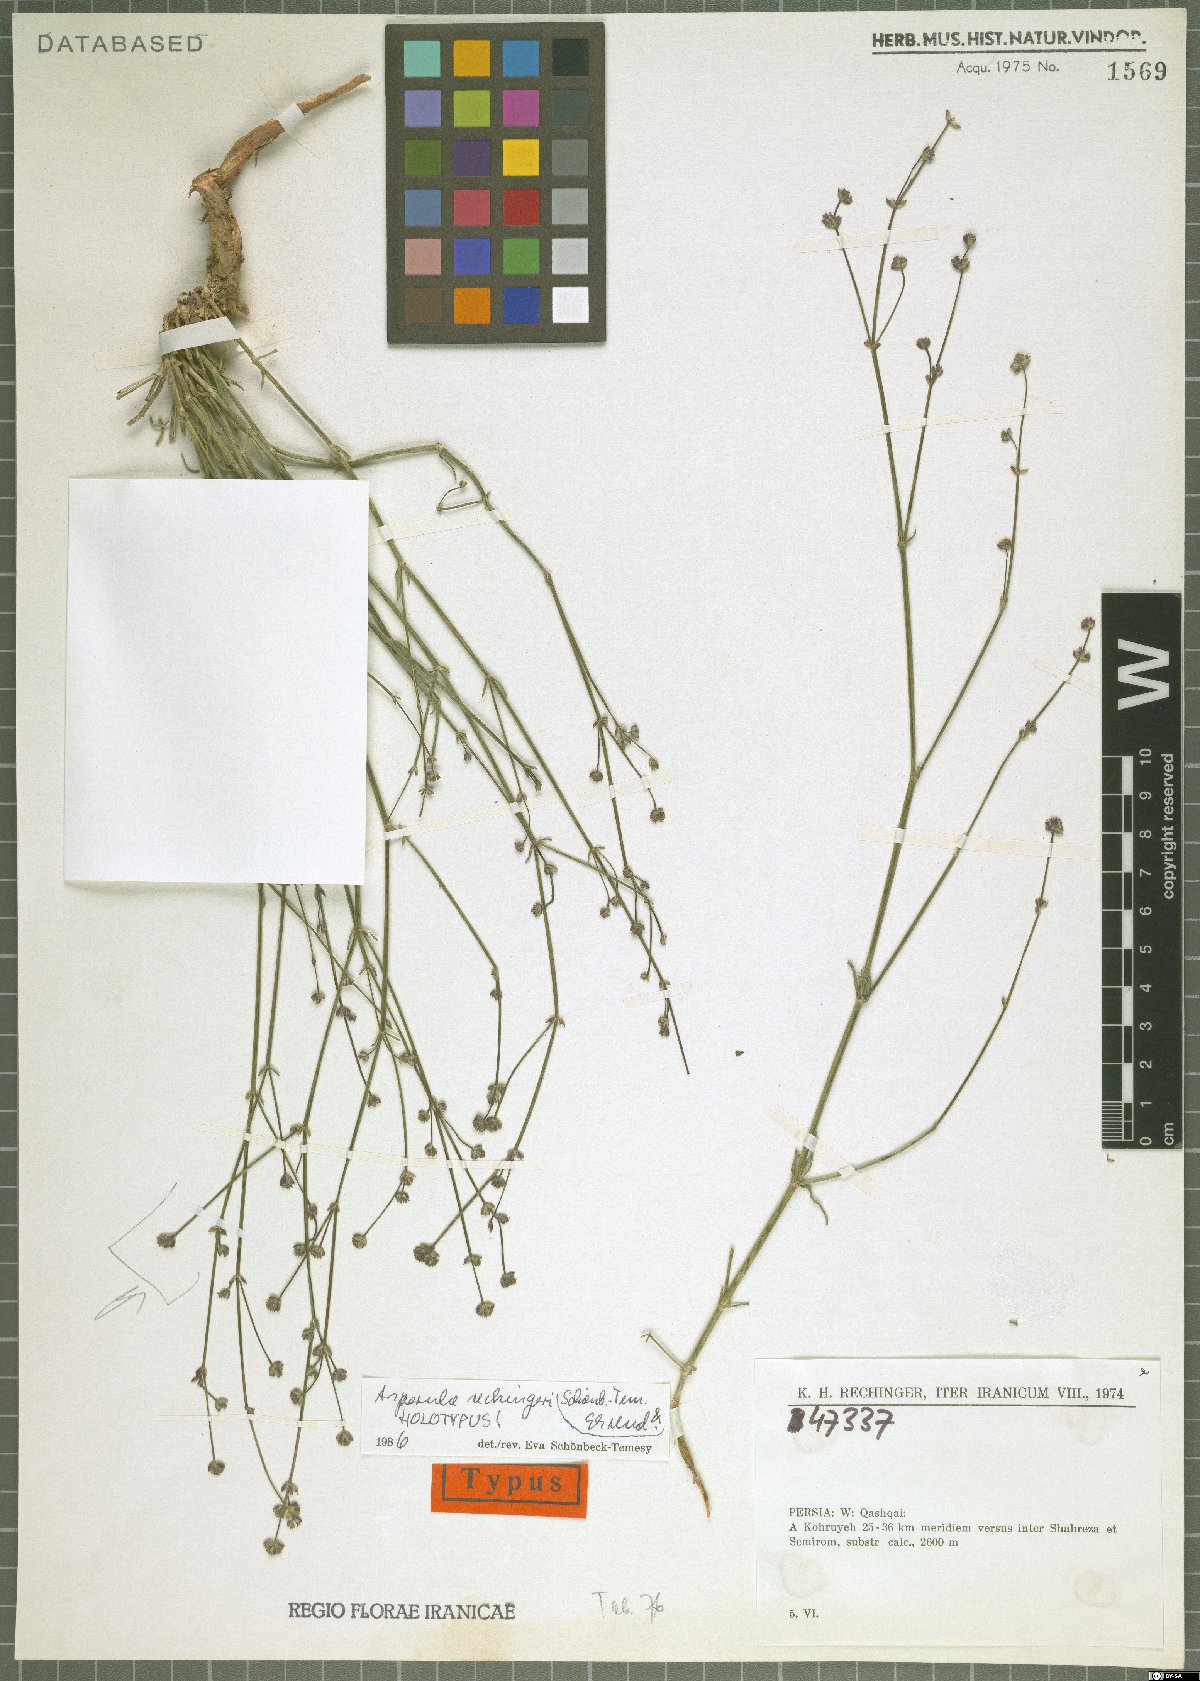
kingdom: Plantae
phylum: Tracheophyta
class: Magnoliopsida
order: Gentianales
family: Rubiaceae
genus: Asperula
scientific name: Asperula rechingeri
